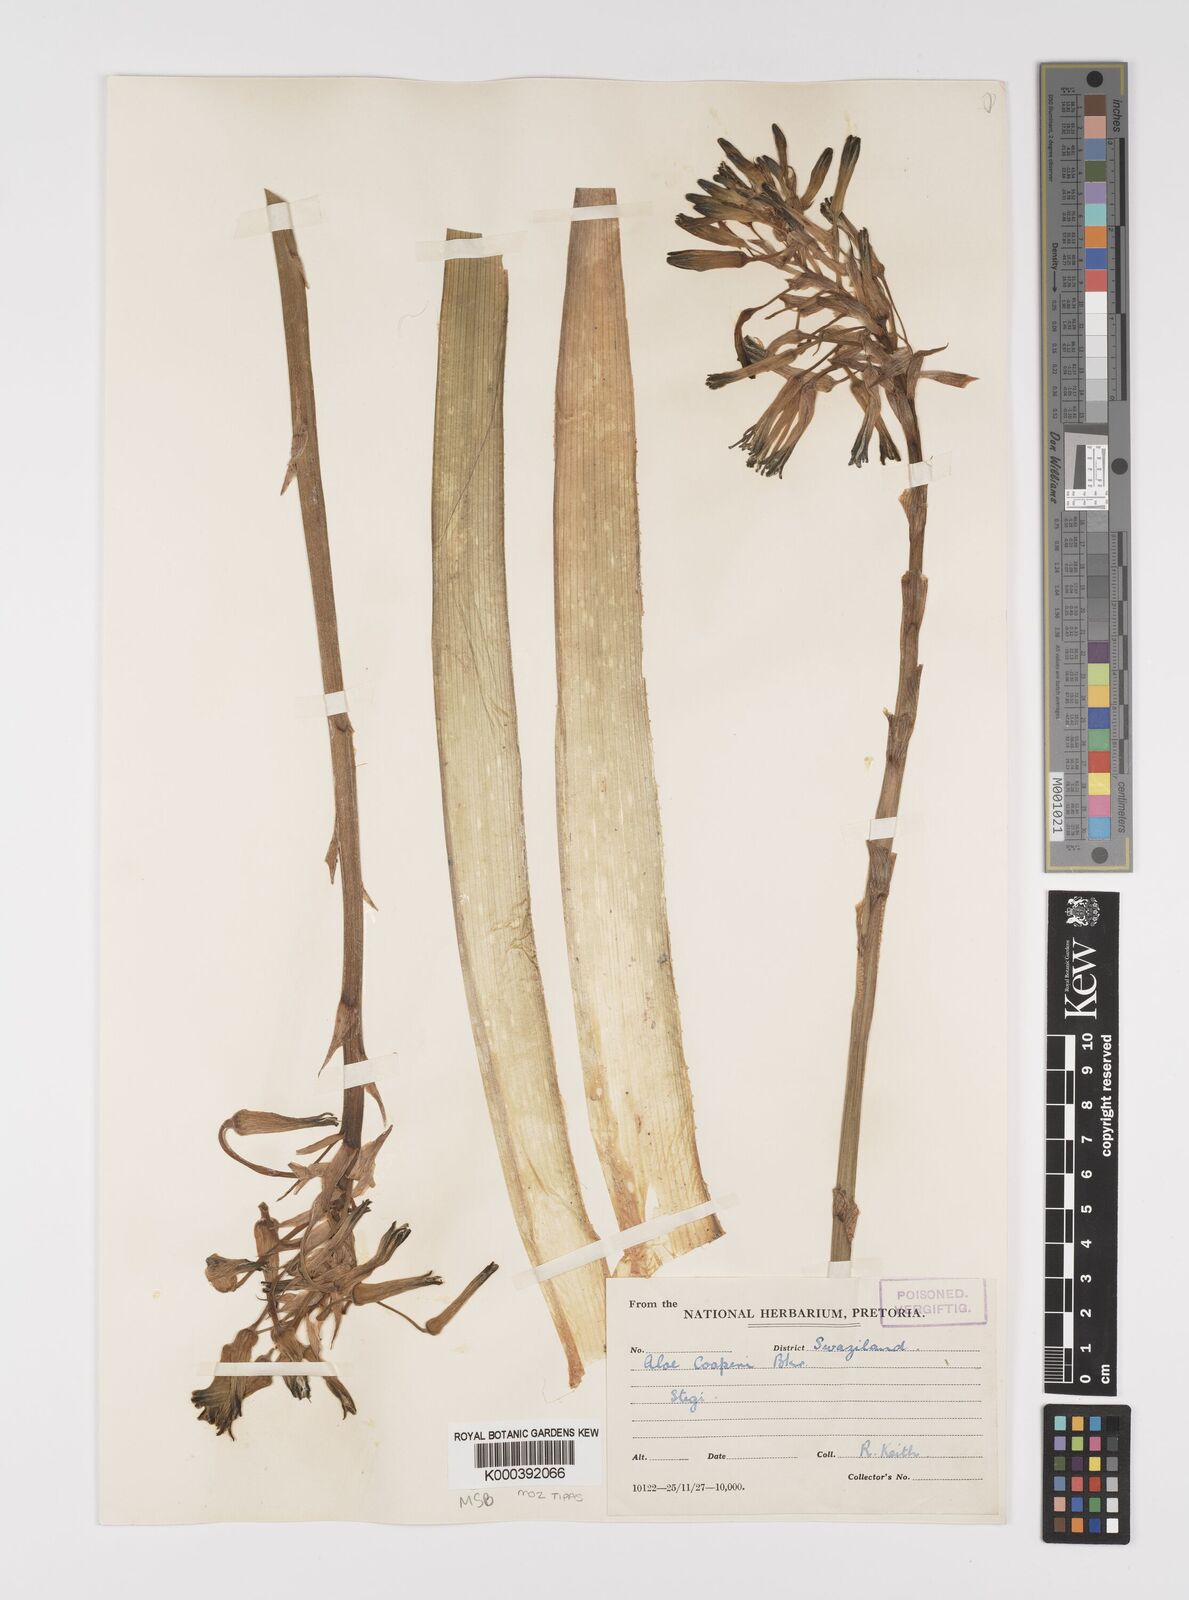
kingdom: Plantae
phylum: Tracheophyta
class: Liliopsida
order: Asparagales
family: Asphodelaceae
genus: Aloe
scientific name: Aloe cooperi
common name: Cooper's aloe
